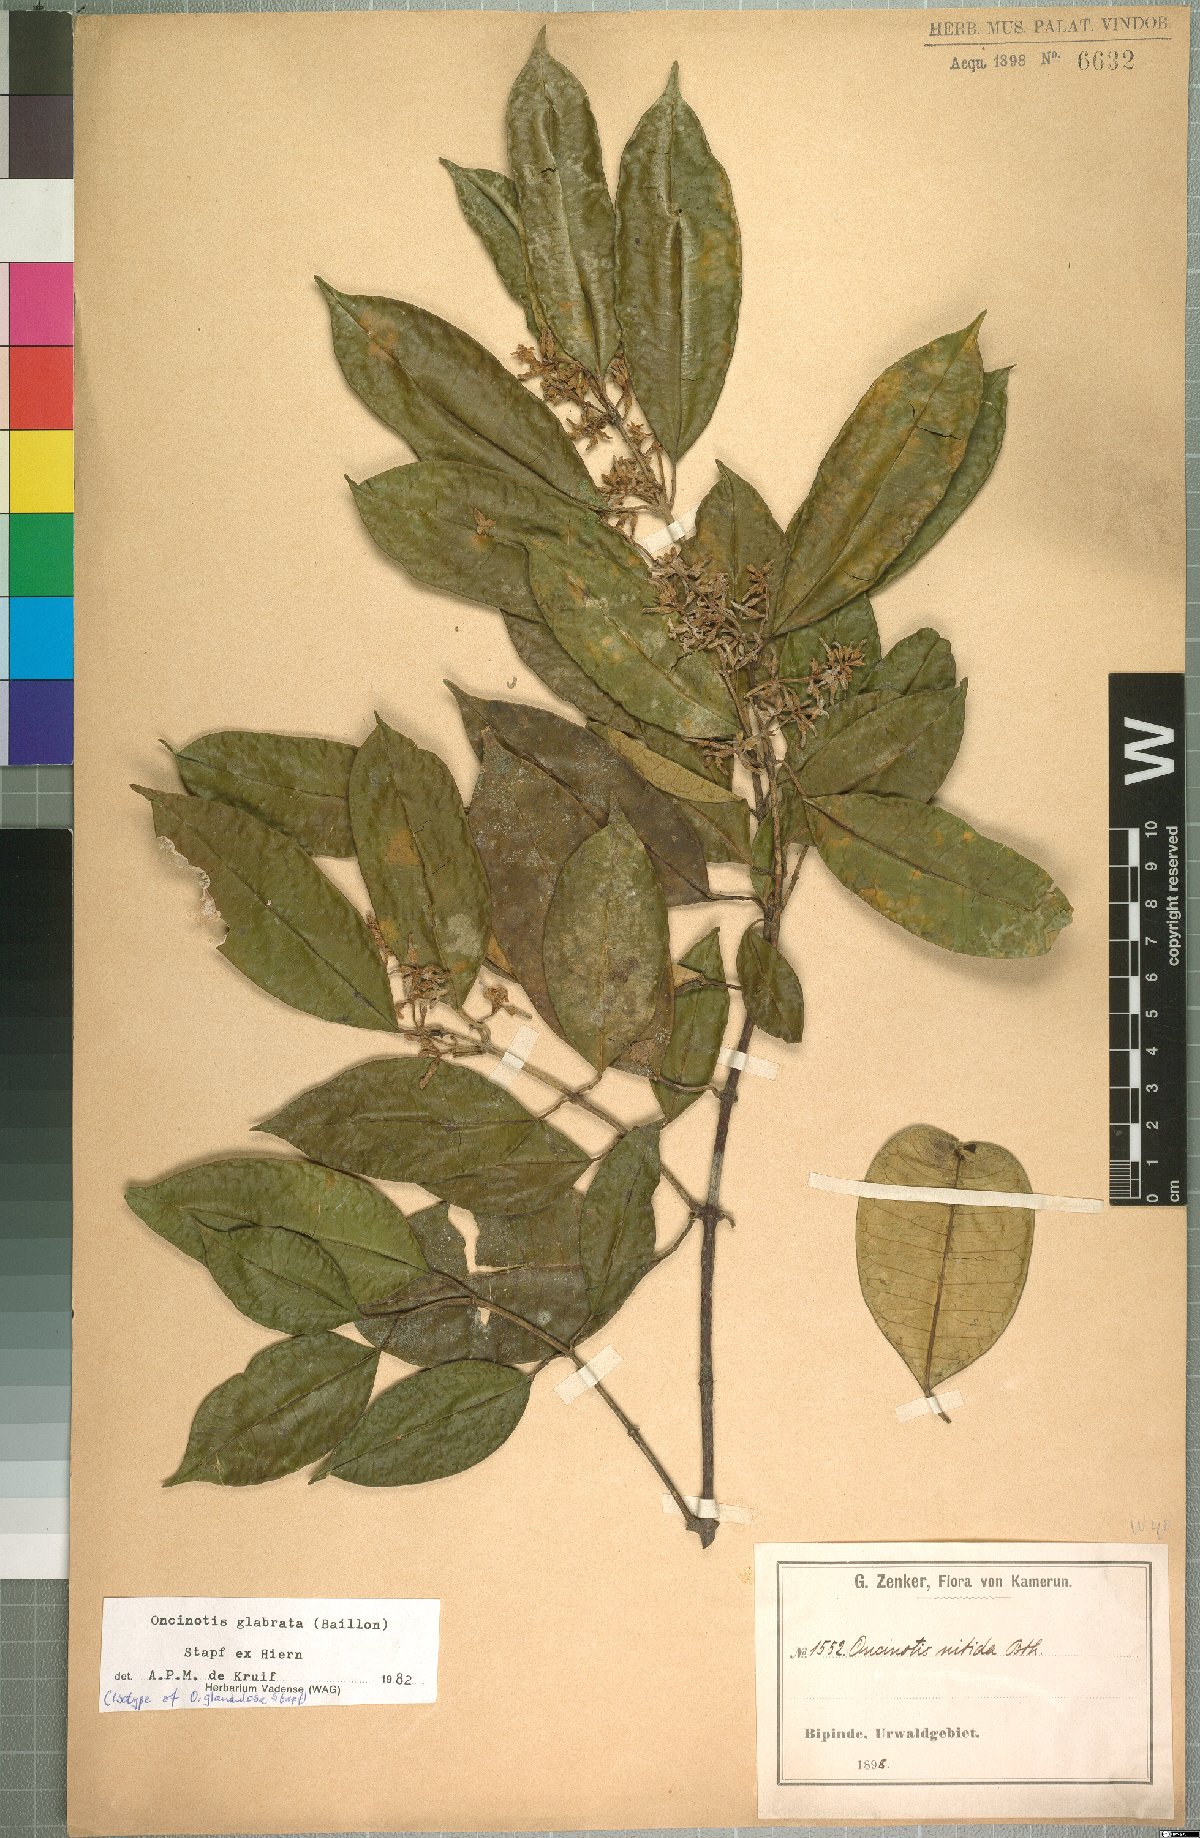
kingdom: Plantae
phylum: Tracheophyta
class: Magnoliopsida
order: Gentianales
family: Apocynaceae
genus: Oncinotis
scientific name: Oncinotis glabrata
